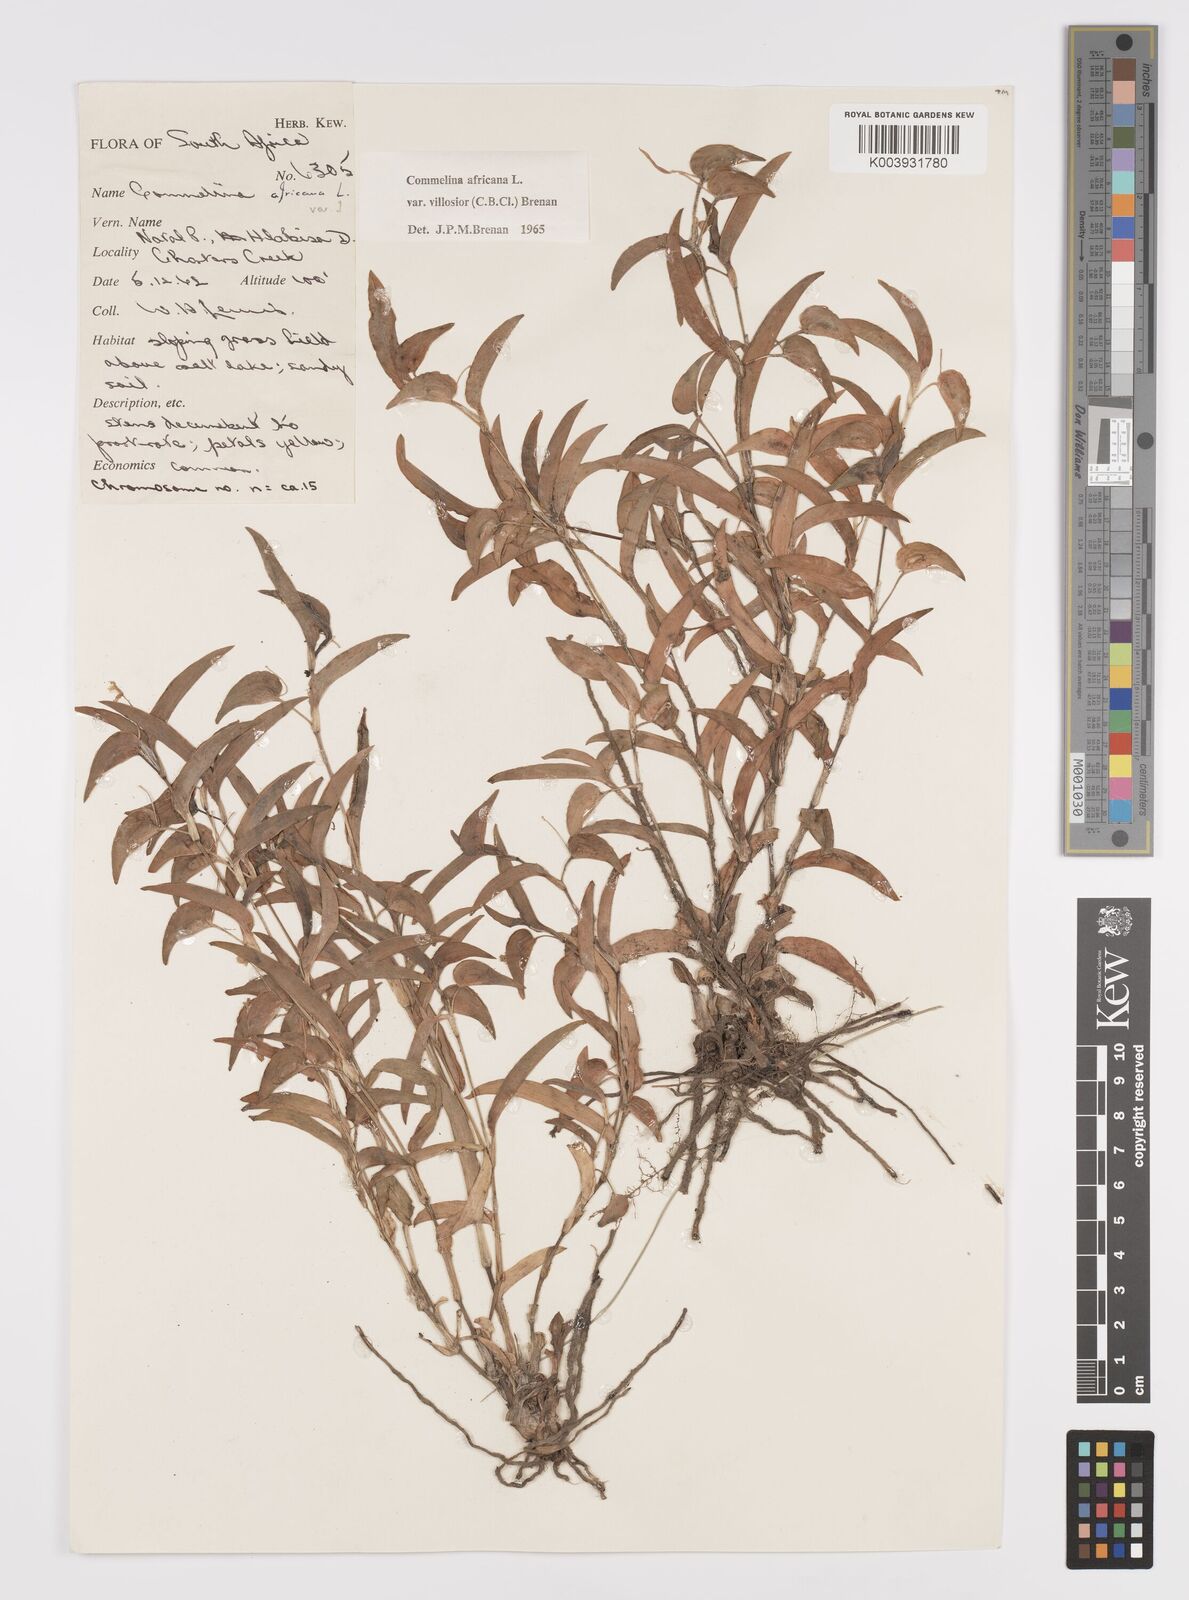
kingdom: Plantae
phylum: Tracheophyta
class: Liliopsida
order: Commelinales
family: Commelinaceae
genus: Commelina
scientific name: Commelina africana
